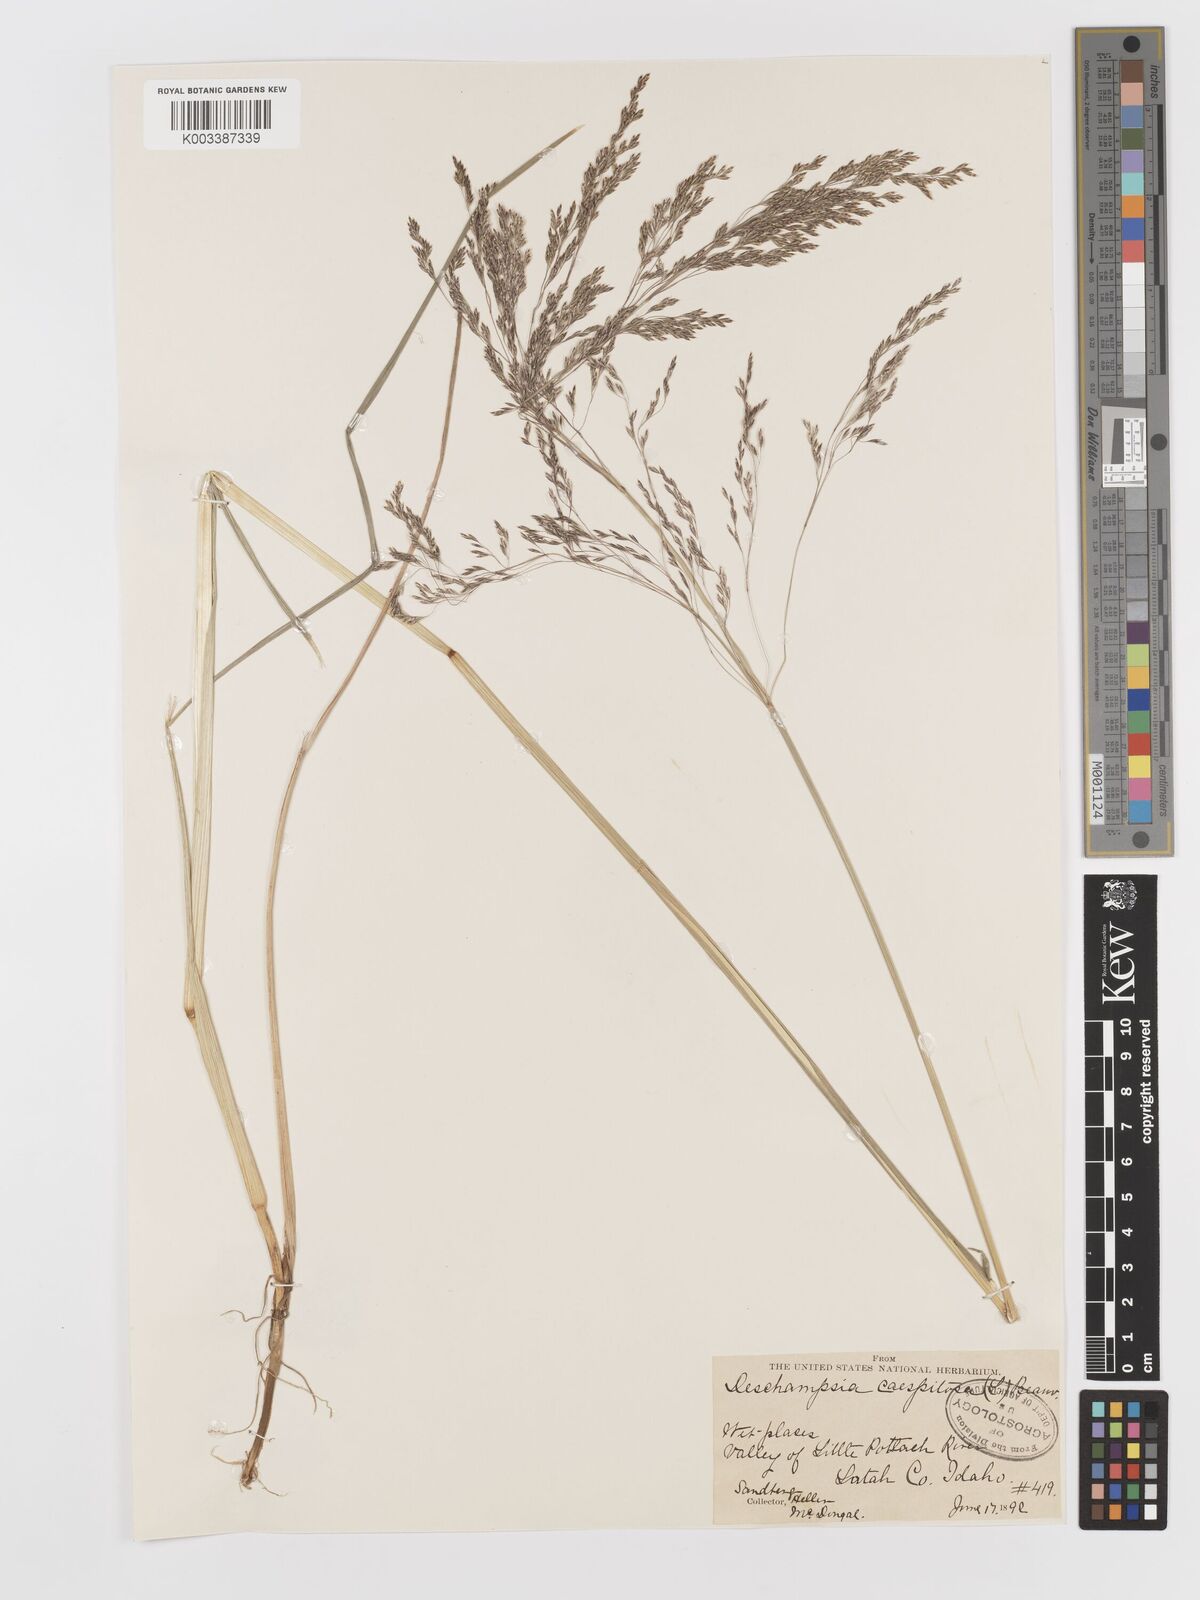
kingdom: Plantae
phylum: Tracheophyta
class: Liliopsida
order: Poales
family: Poaceae
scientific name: Poaceae
